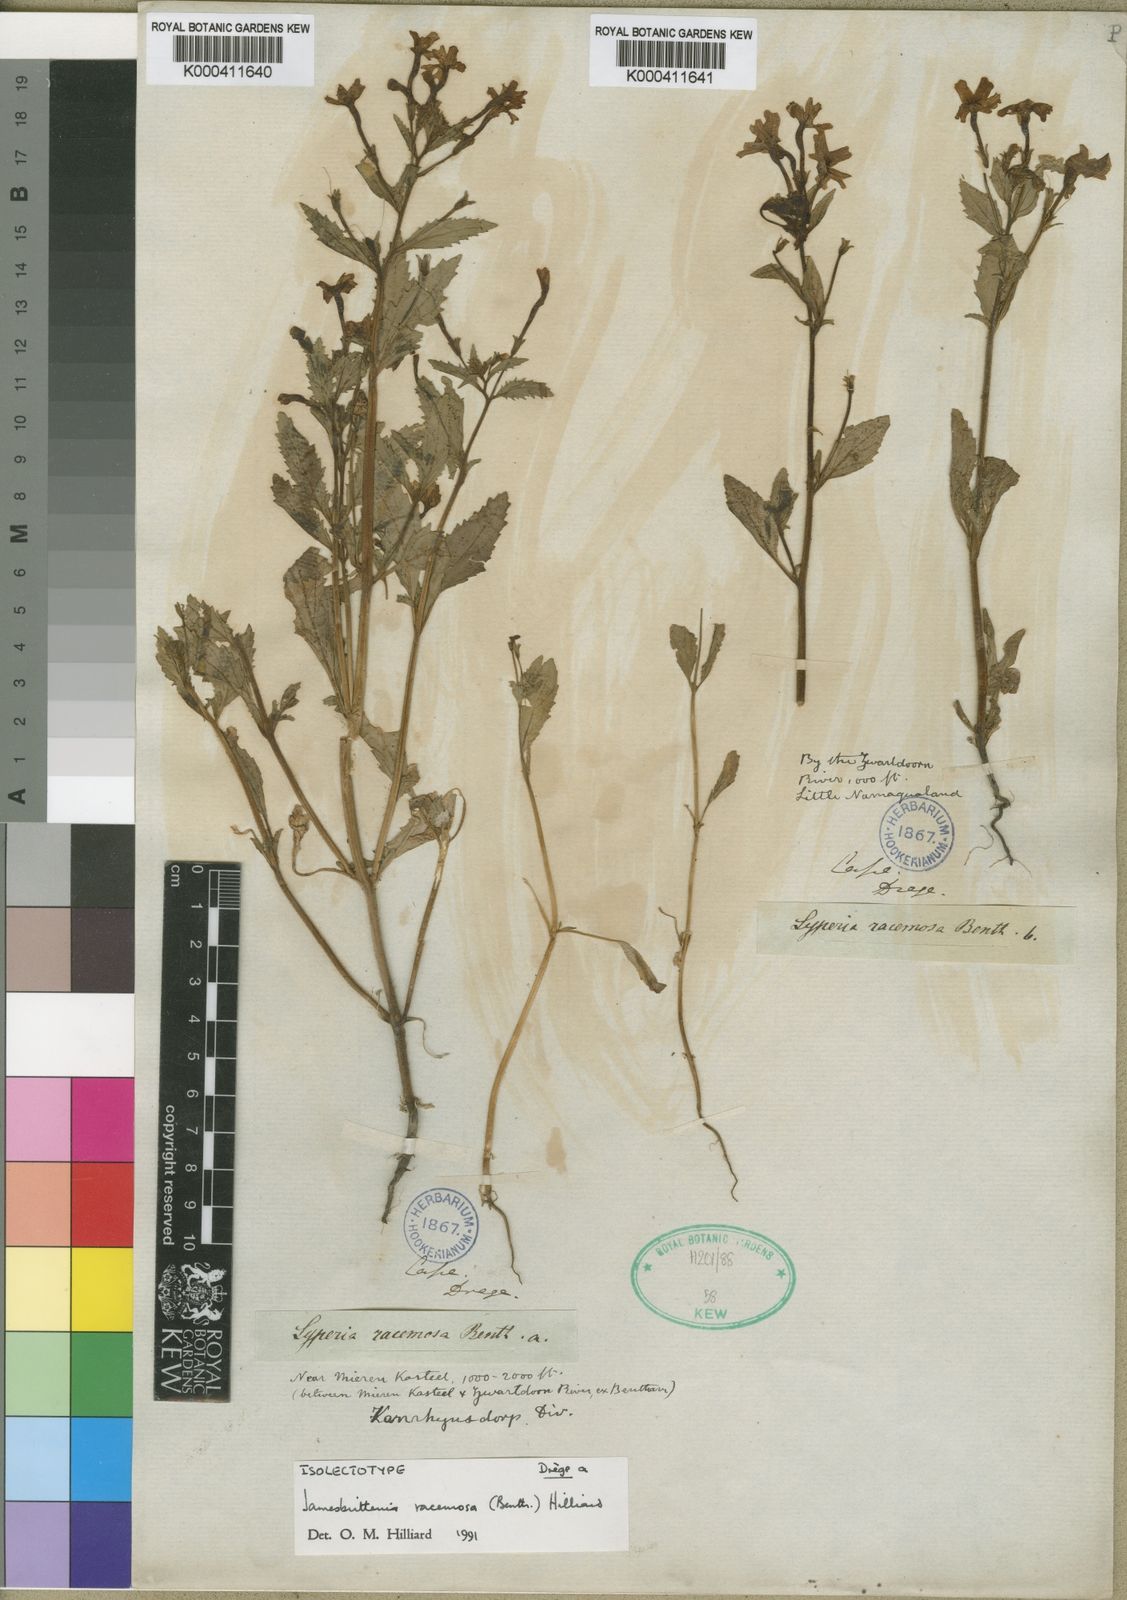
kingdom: Plantae
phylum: Tracheophyta
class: Magnoliopsida
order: Lamiales
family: Scrophulariaceae
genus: Jamesbrittenia
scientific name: Jamesbrittenia racemosa
